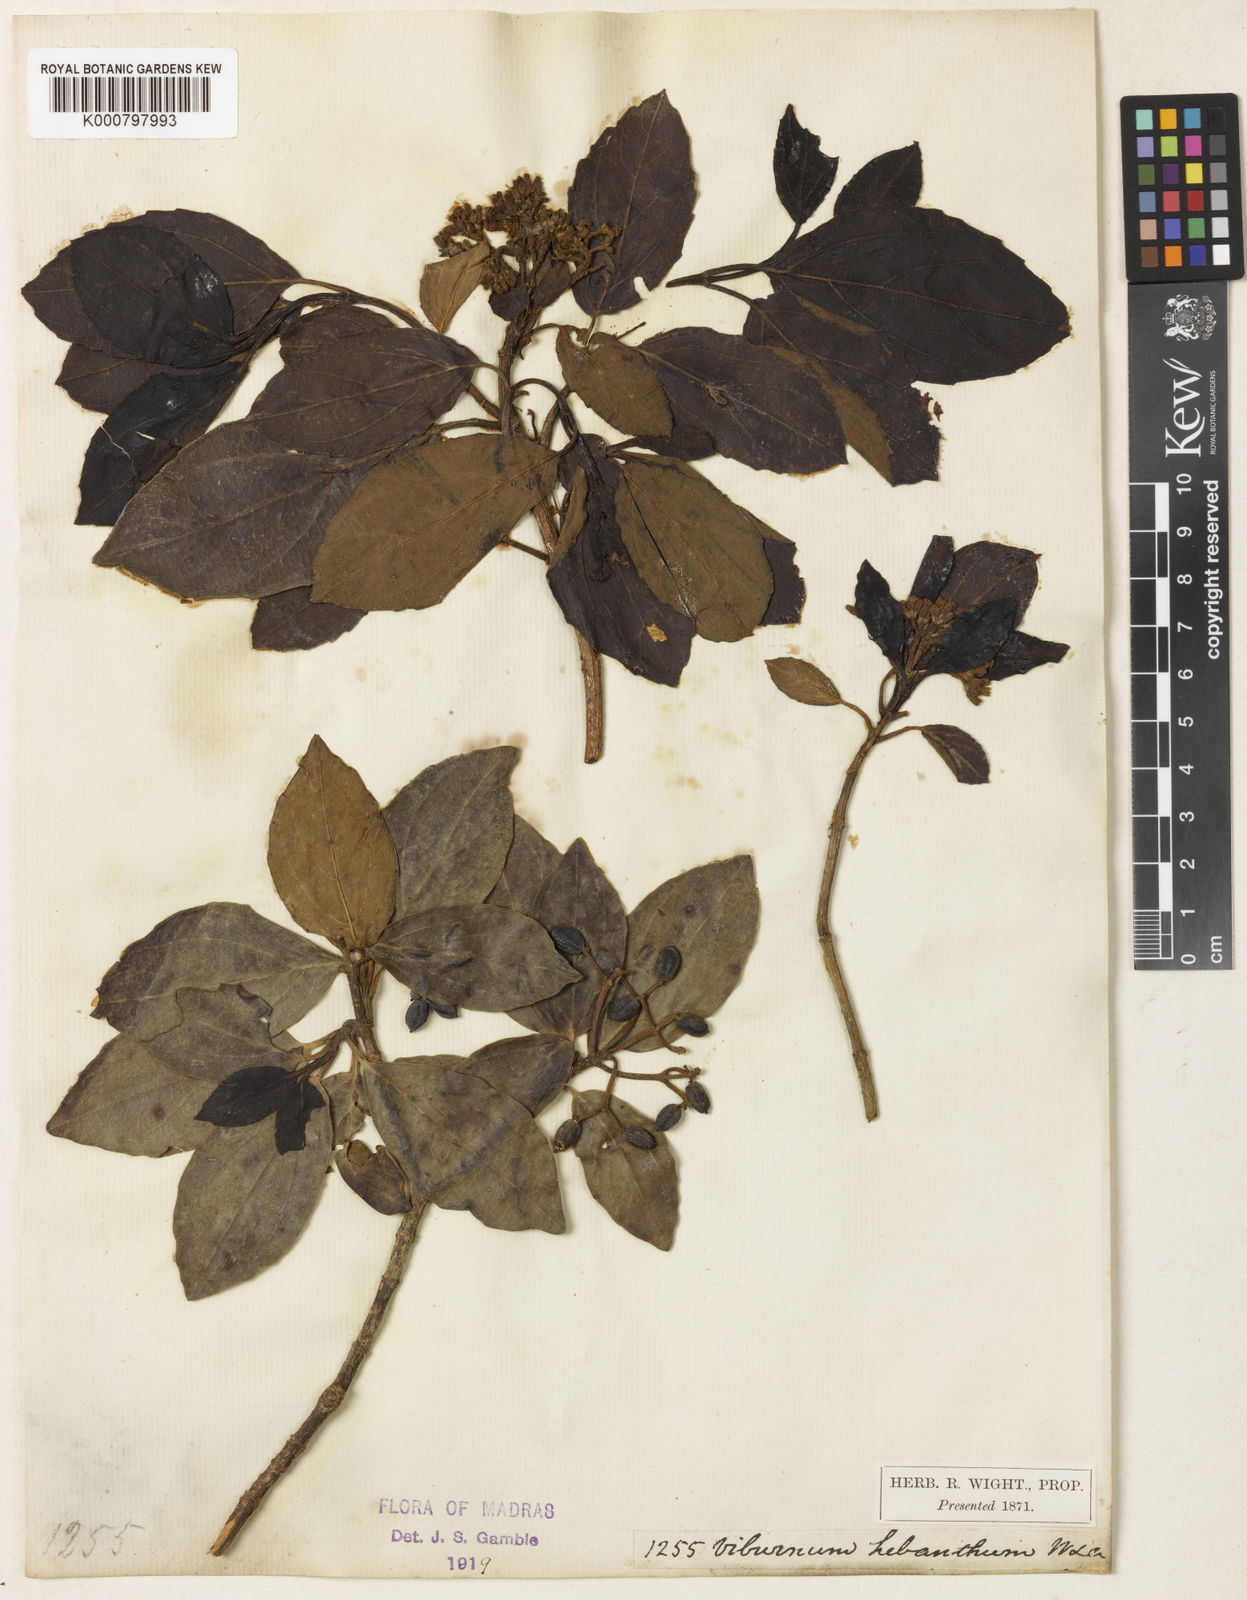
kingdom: Plantae
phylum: Tracheophyta
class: Magnoliopsida
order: Dipsacales
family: Viburnaceae
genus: Viburnum
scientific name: Viburnum coriaceum
